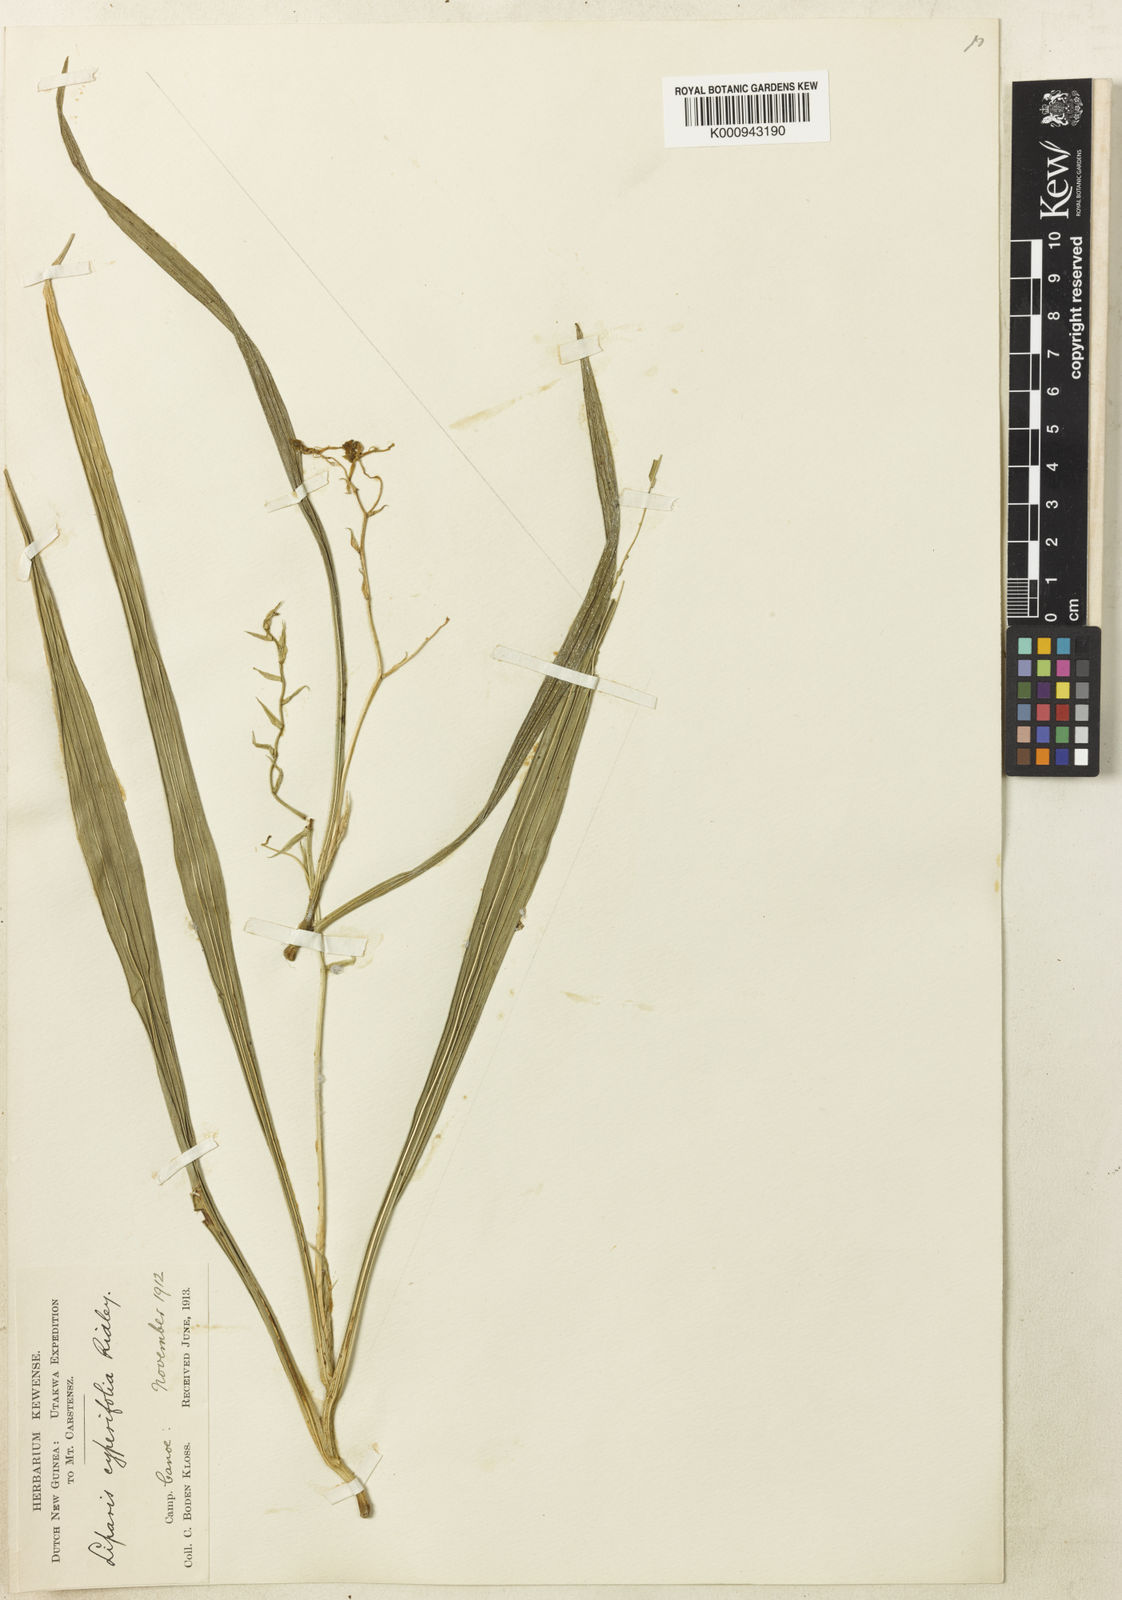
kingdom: Plantae
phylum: Tracheophyta
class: Liliopsida
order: Asparagales
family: Orchidaceae
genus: Liparis
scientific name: Liparis imperatifolia
